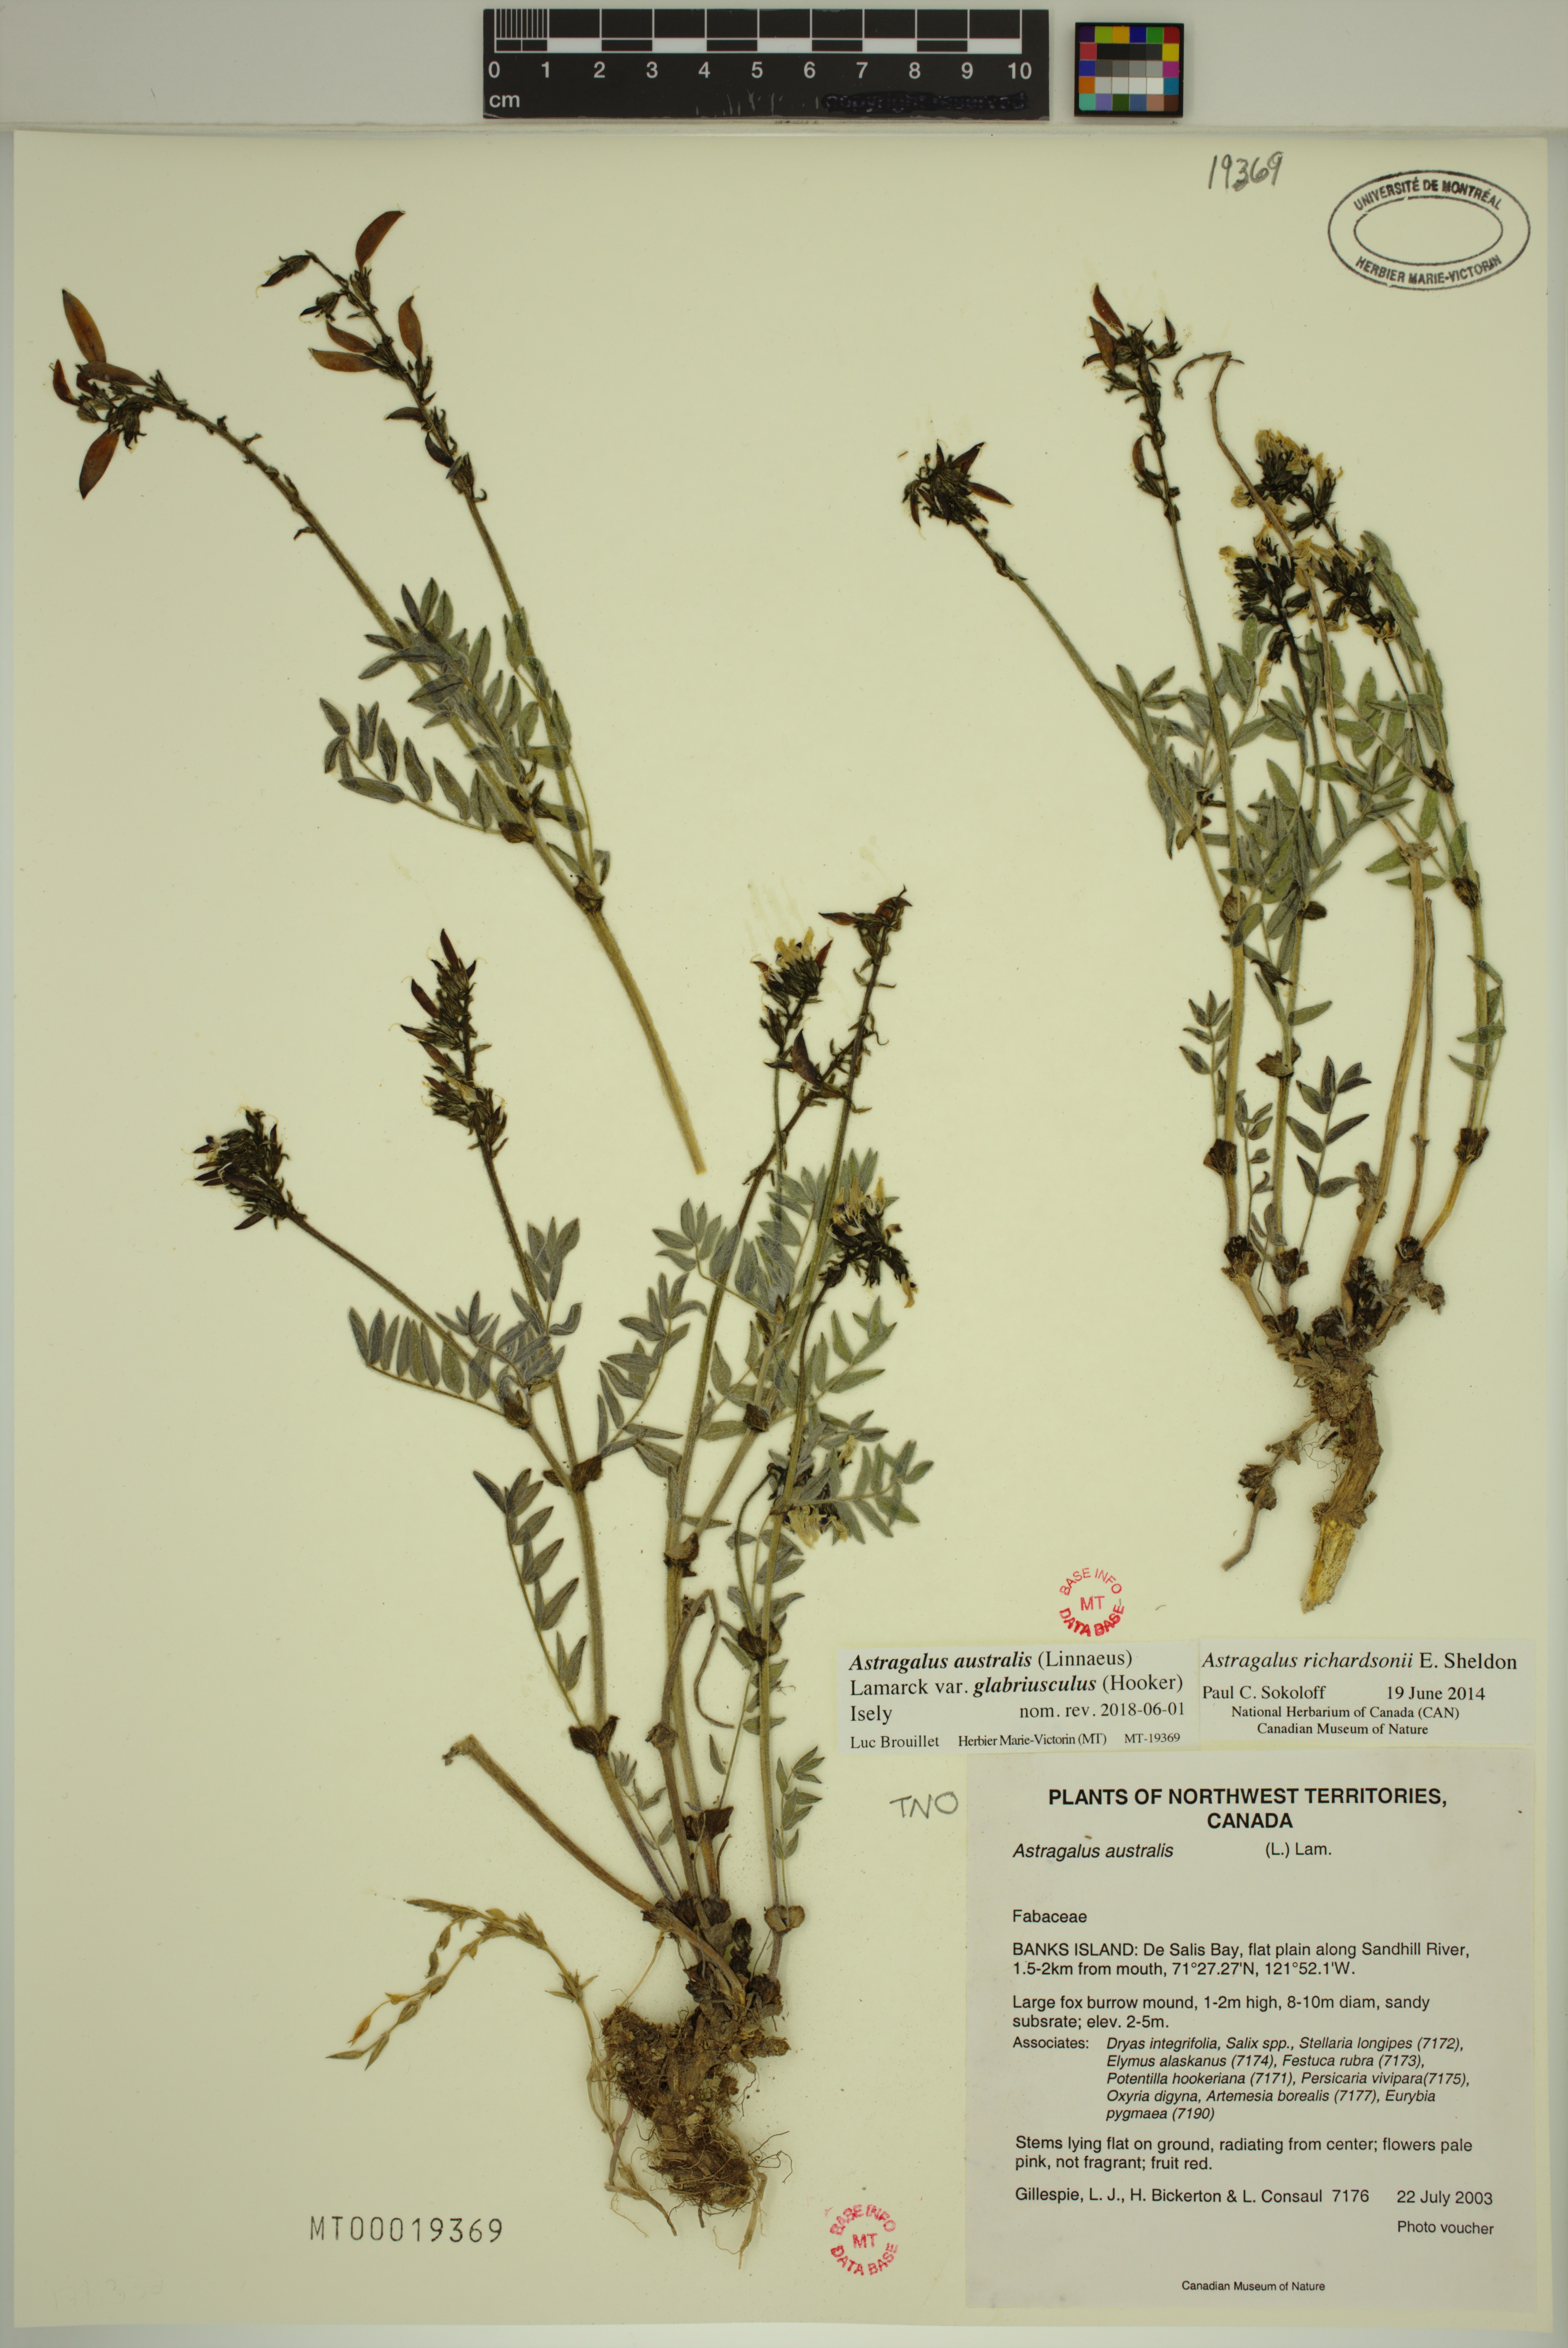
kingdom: Plantae
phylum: Tracheophyta
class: Magnoliopsida
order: Fabales
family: Fabaceae
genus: Astragalus
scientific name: Astragalus aboriginorum
